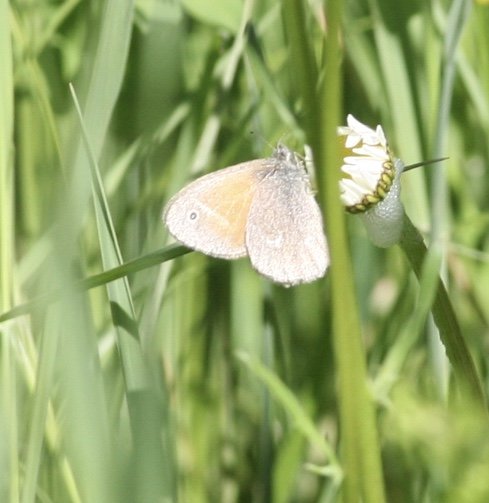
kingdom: Animalia
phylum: Arthropoda
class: Insecta
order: Lepidoptera
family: Nymphalidae
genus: Coenonympha
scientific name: Coenonympha tullia
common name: Large Heath
